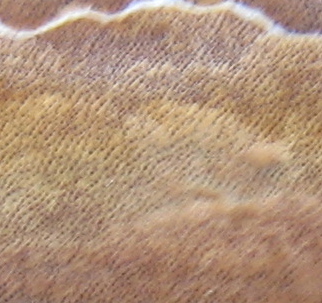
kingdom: Fungi
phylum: Basidiomycota
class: Agaricomycetes
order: Hymenochaetales
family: Hymenochaetaceae
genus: Fuscoporia
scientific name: Fuscoporia ferrea
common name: skorpe-ildporesvamp
